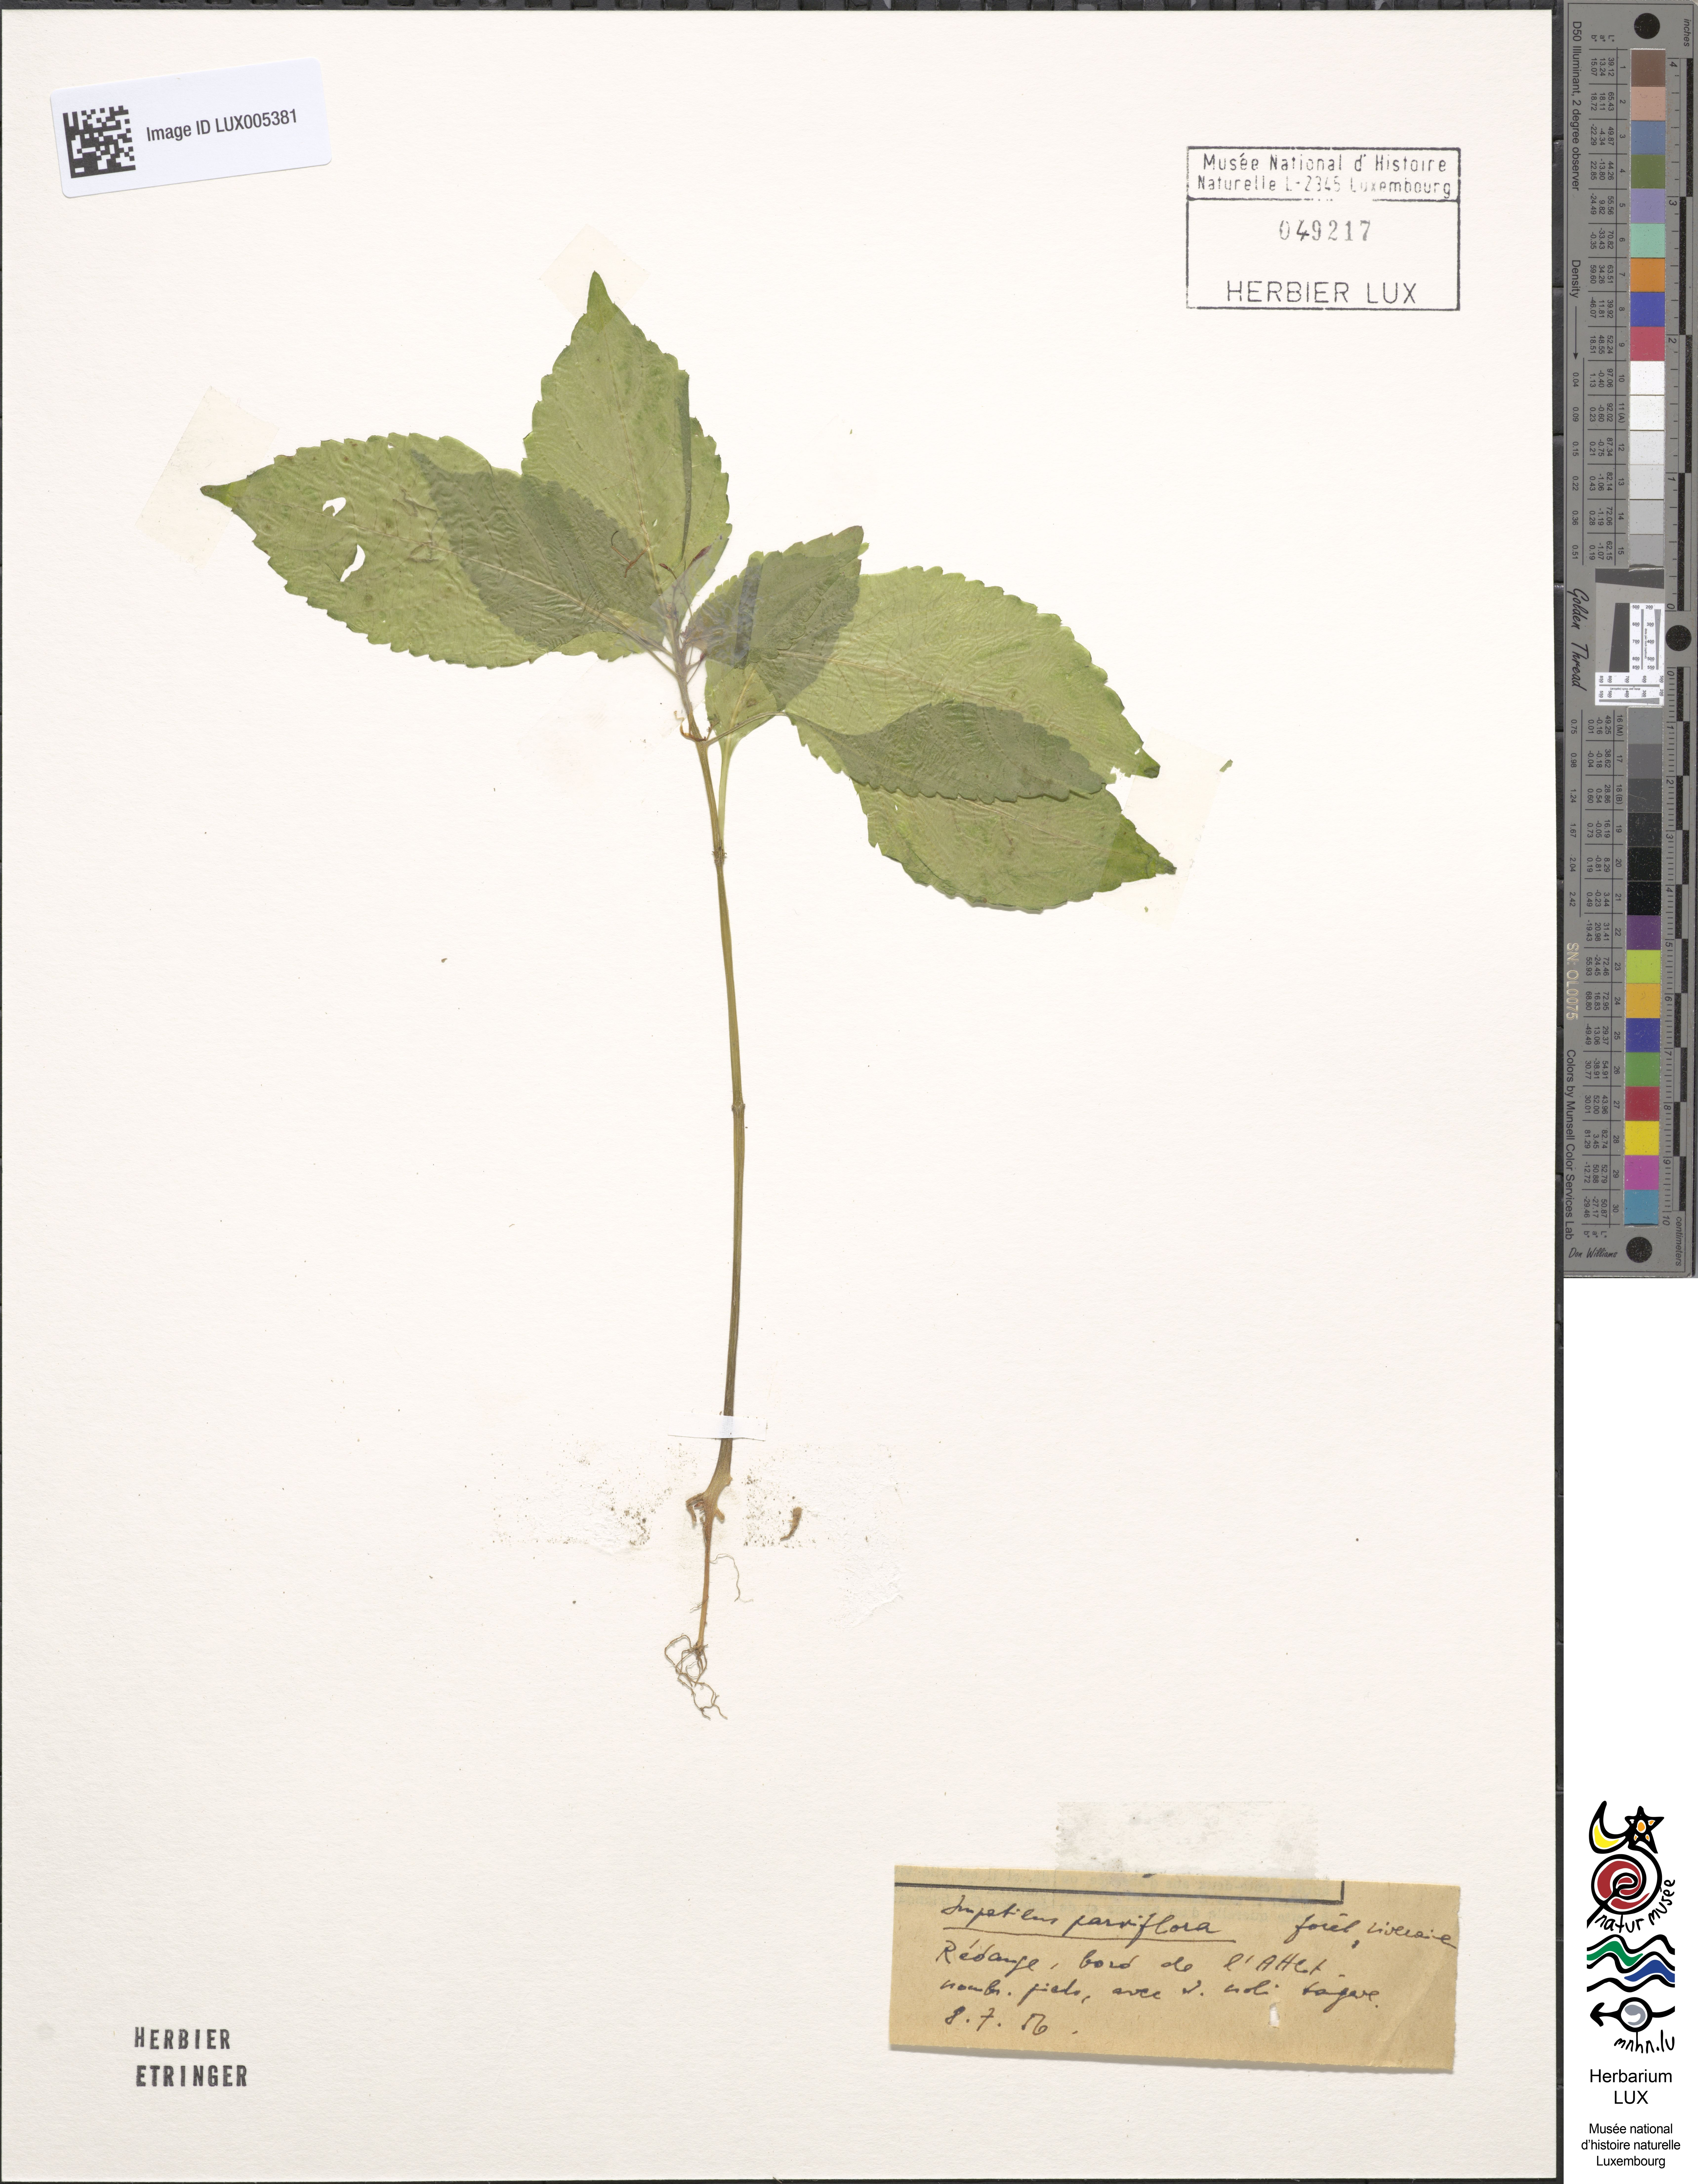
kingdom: Plantae
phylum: Tracheophyta
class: Magnoliopsida
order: Ericales
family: Balsaminaceae
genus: Impatiens
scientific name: Impatiens parviflora
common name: Small balsam
